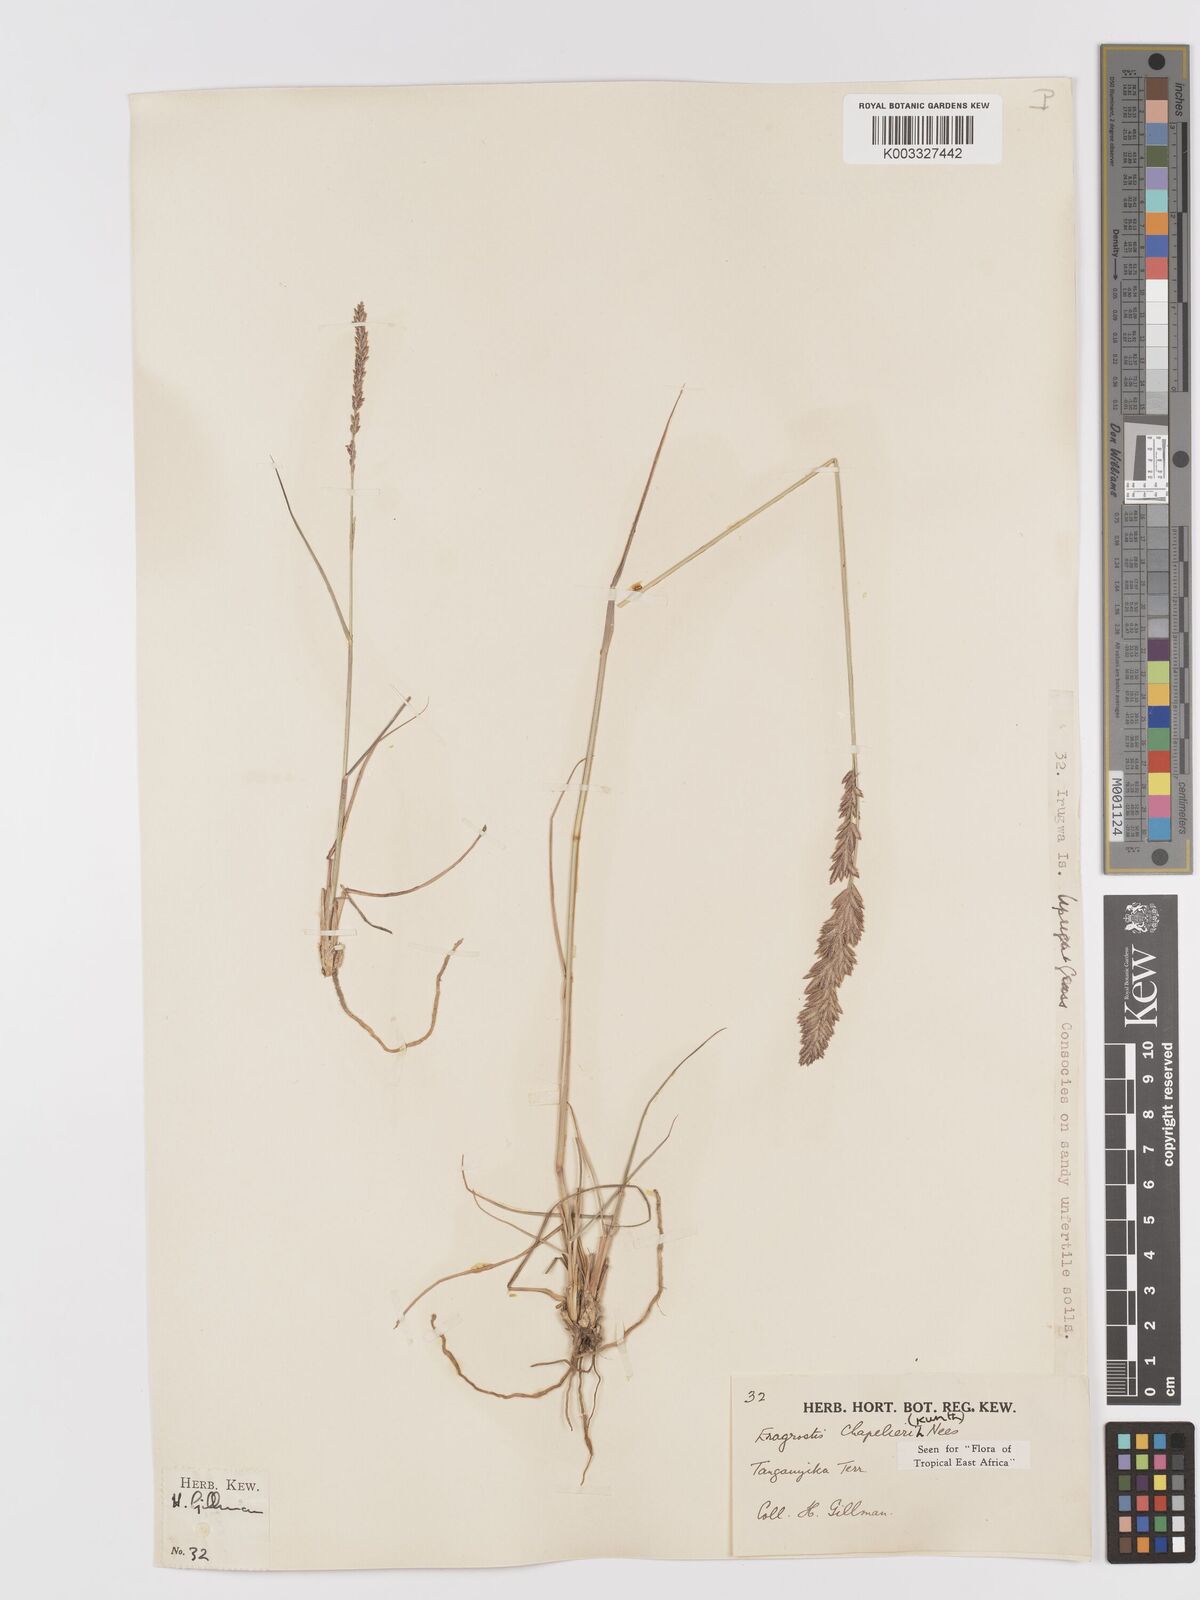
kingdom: Plantae
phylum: Tracheophyta
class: Liliopsida
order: Poales
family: Poaceae
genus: Eragrostis
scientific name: Eragrostis chapelieri
